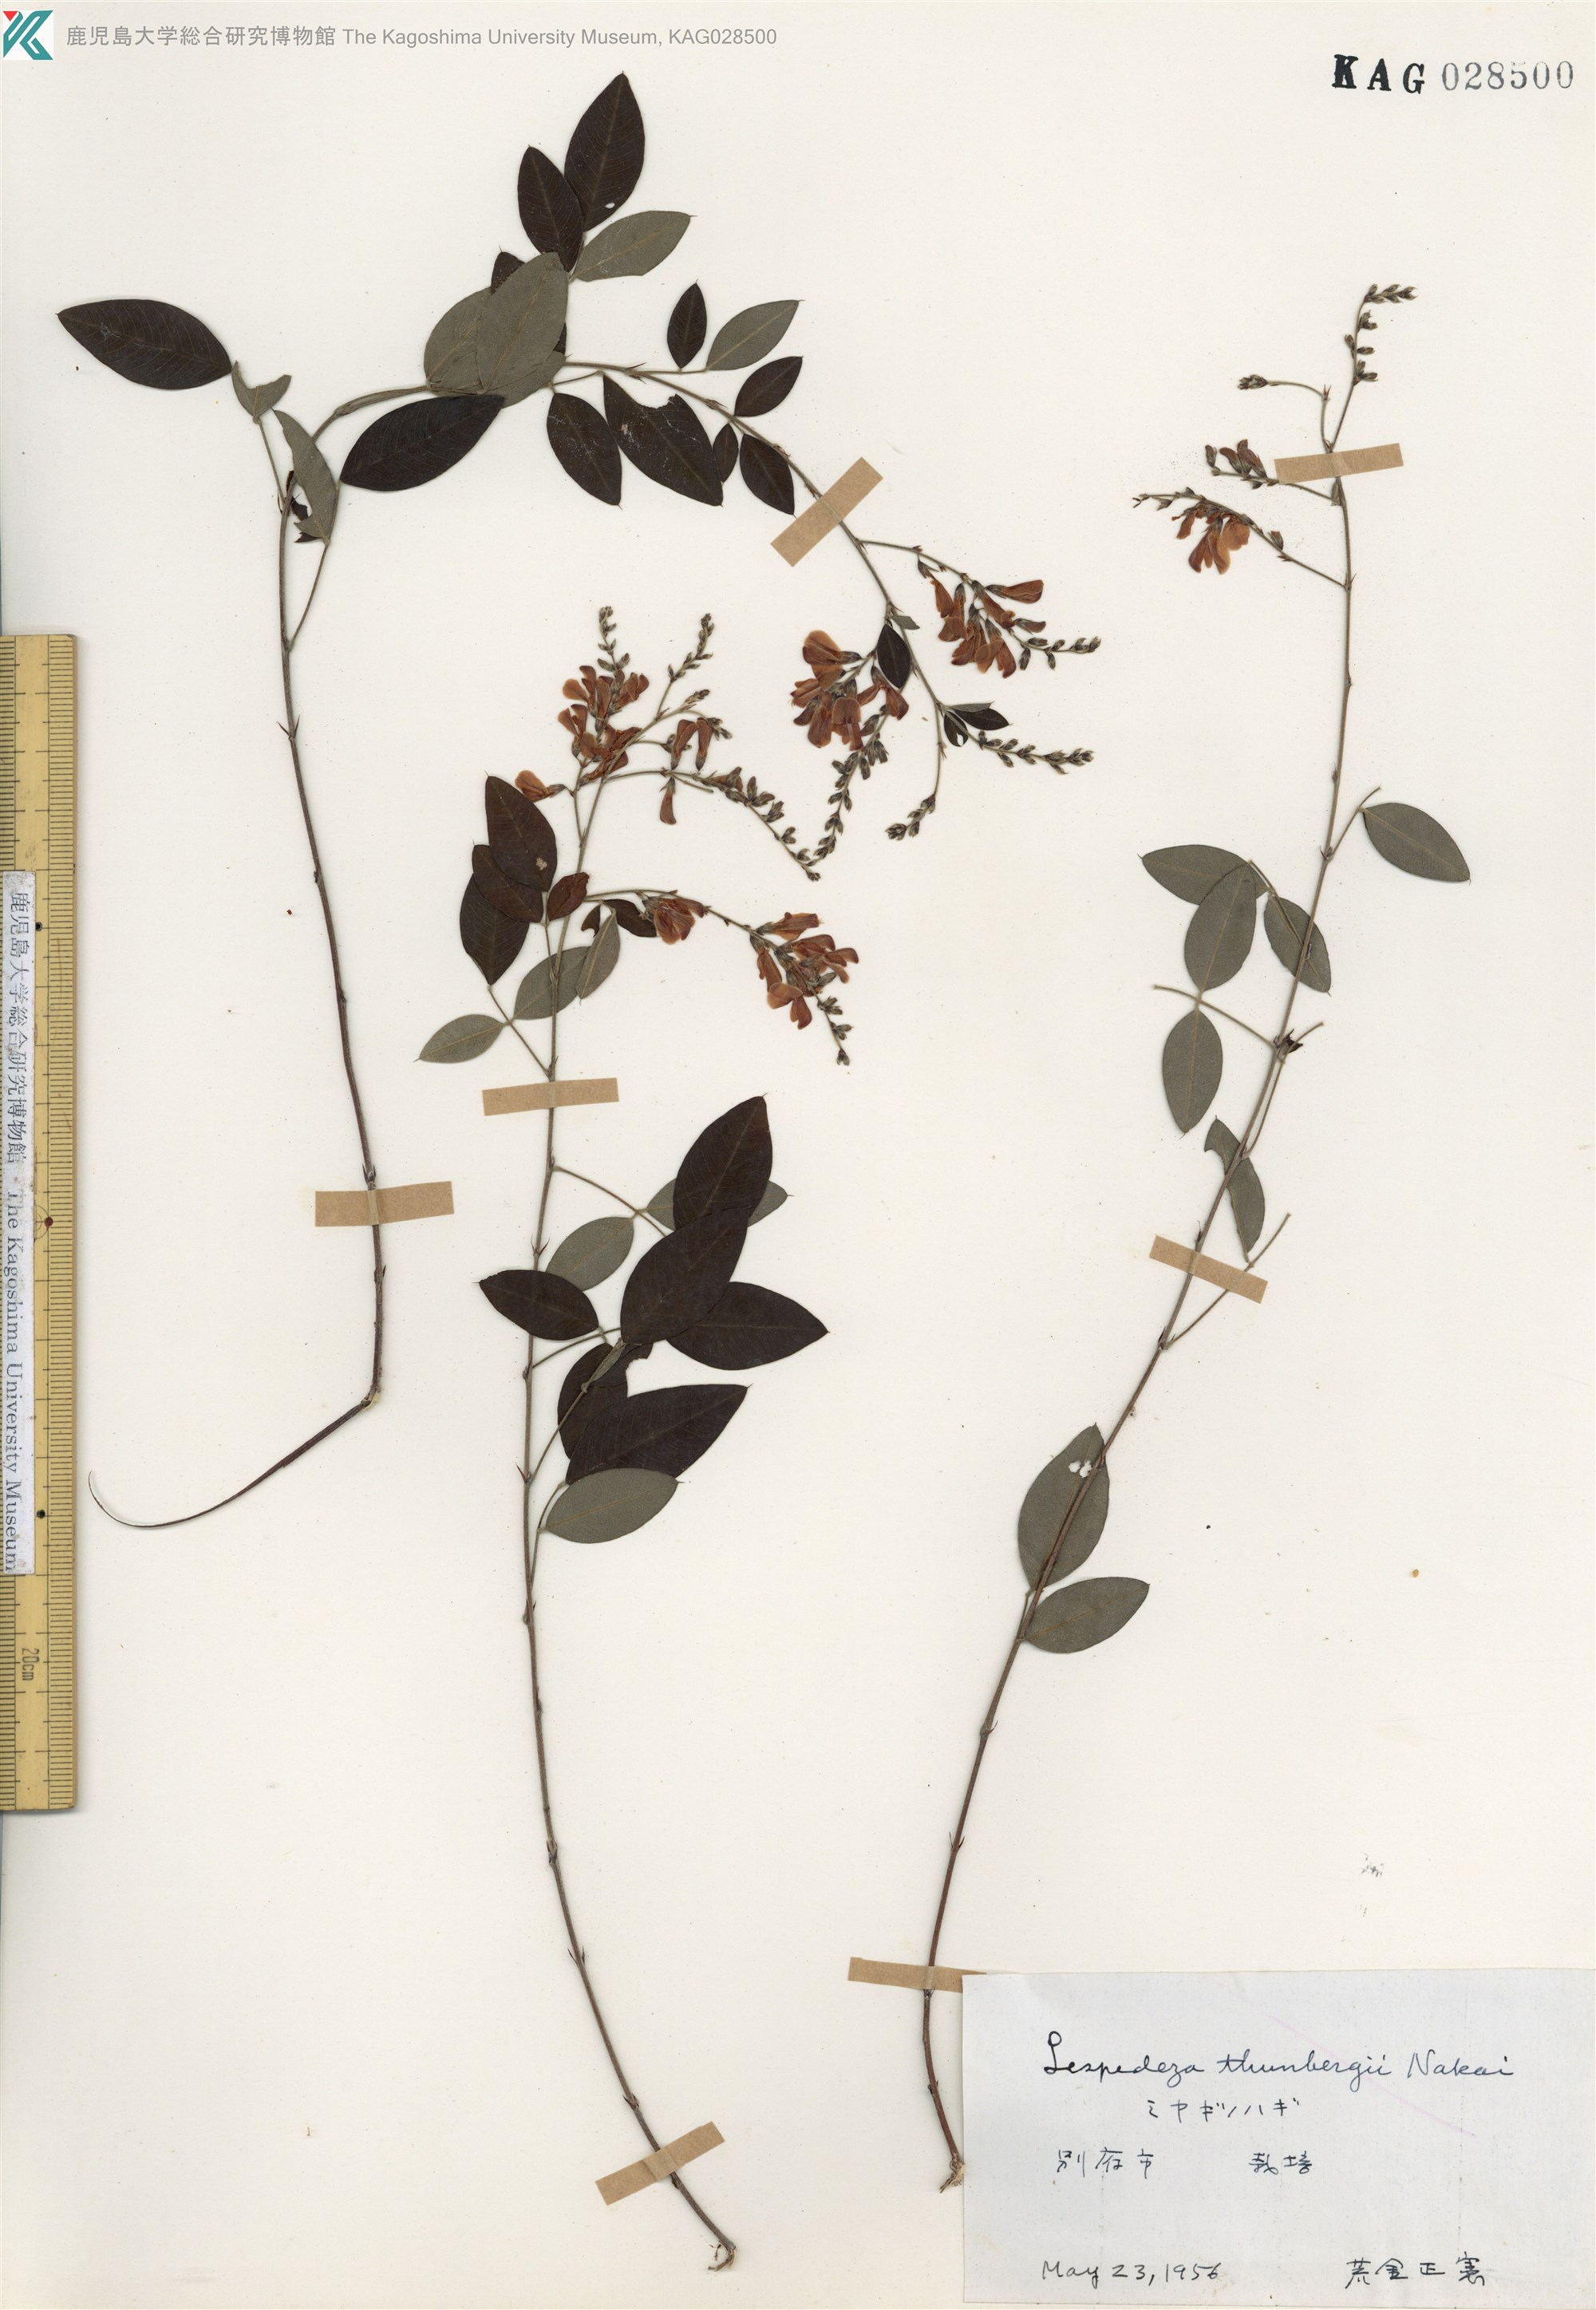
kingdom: Plantae
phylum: Tracheophyta
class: Magnoliopsida
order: Fabales
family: Fabaceae
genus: Lespedeza
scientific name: Lespedeza thunbergii
